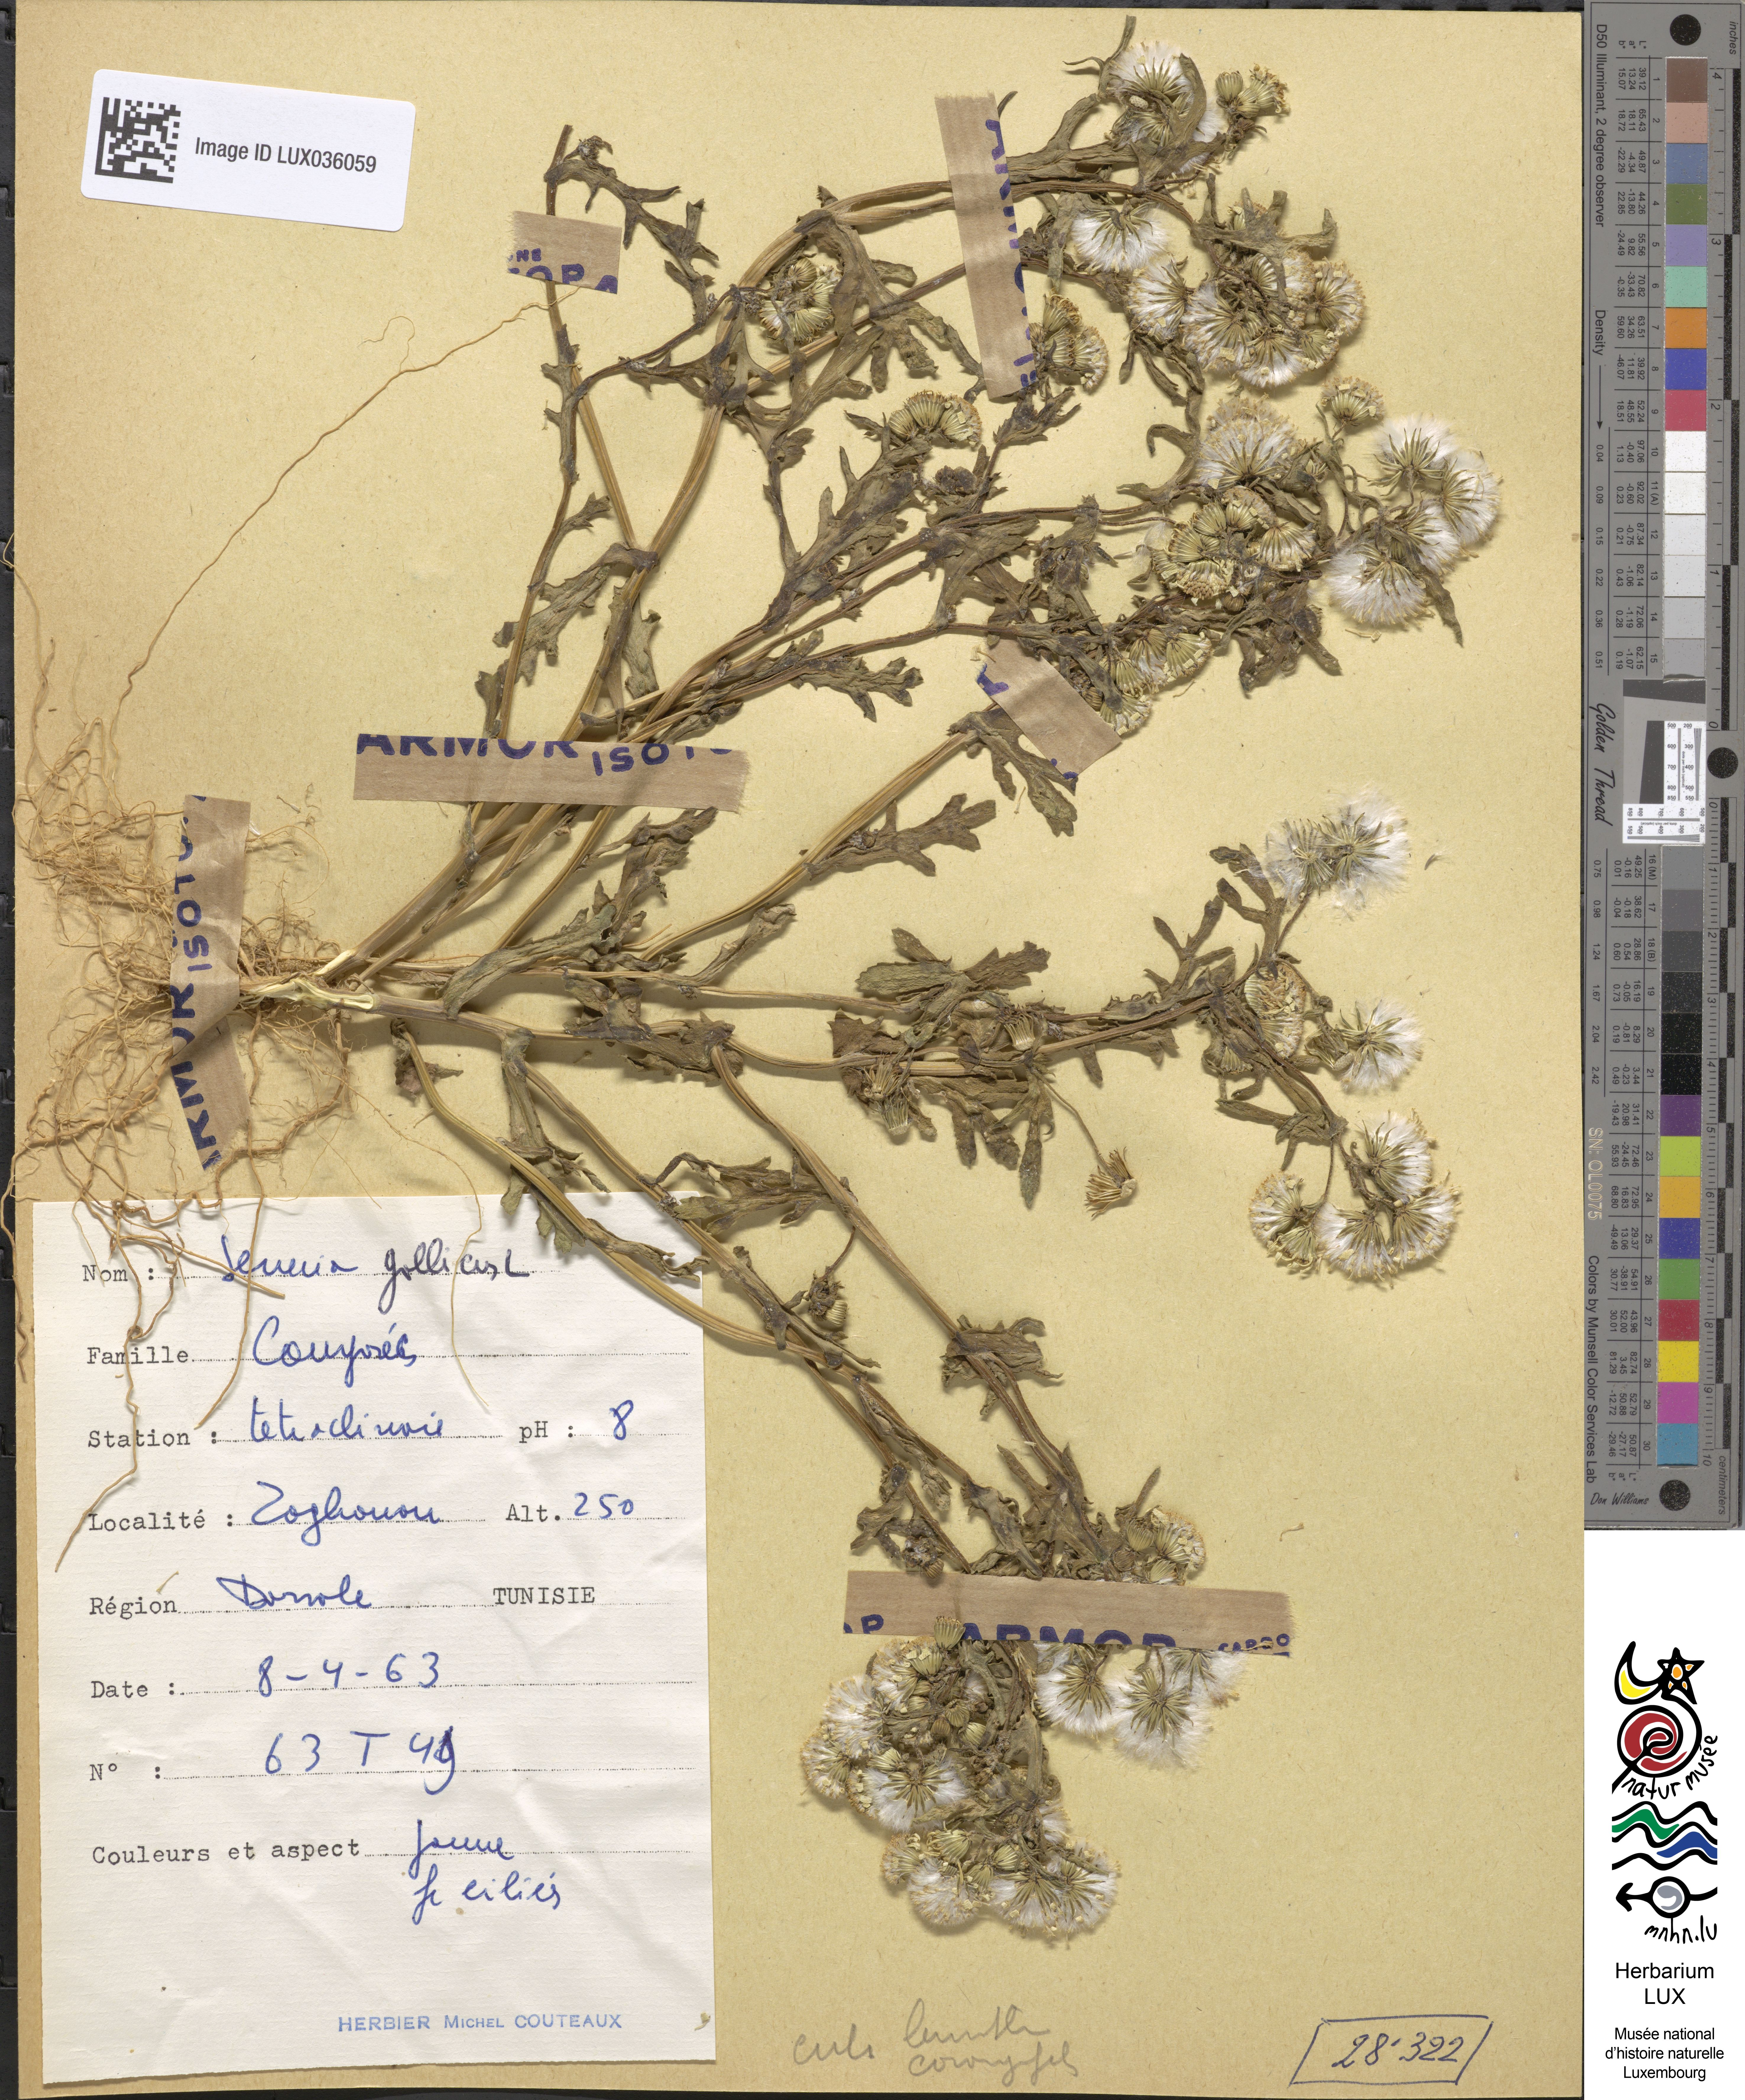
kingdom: Plantae
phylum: Tracheophyta
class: Magnoliopsida
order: Asterales
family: Asteraceae
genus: Senecio
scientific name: Senecio gallicus
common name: French groundsel
